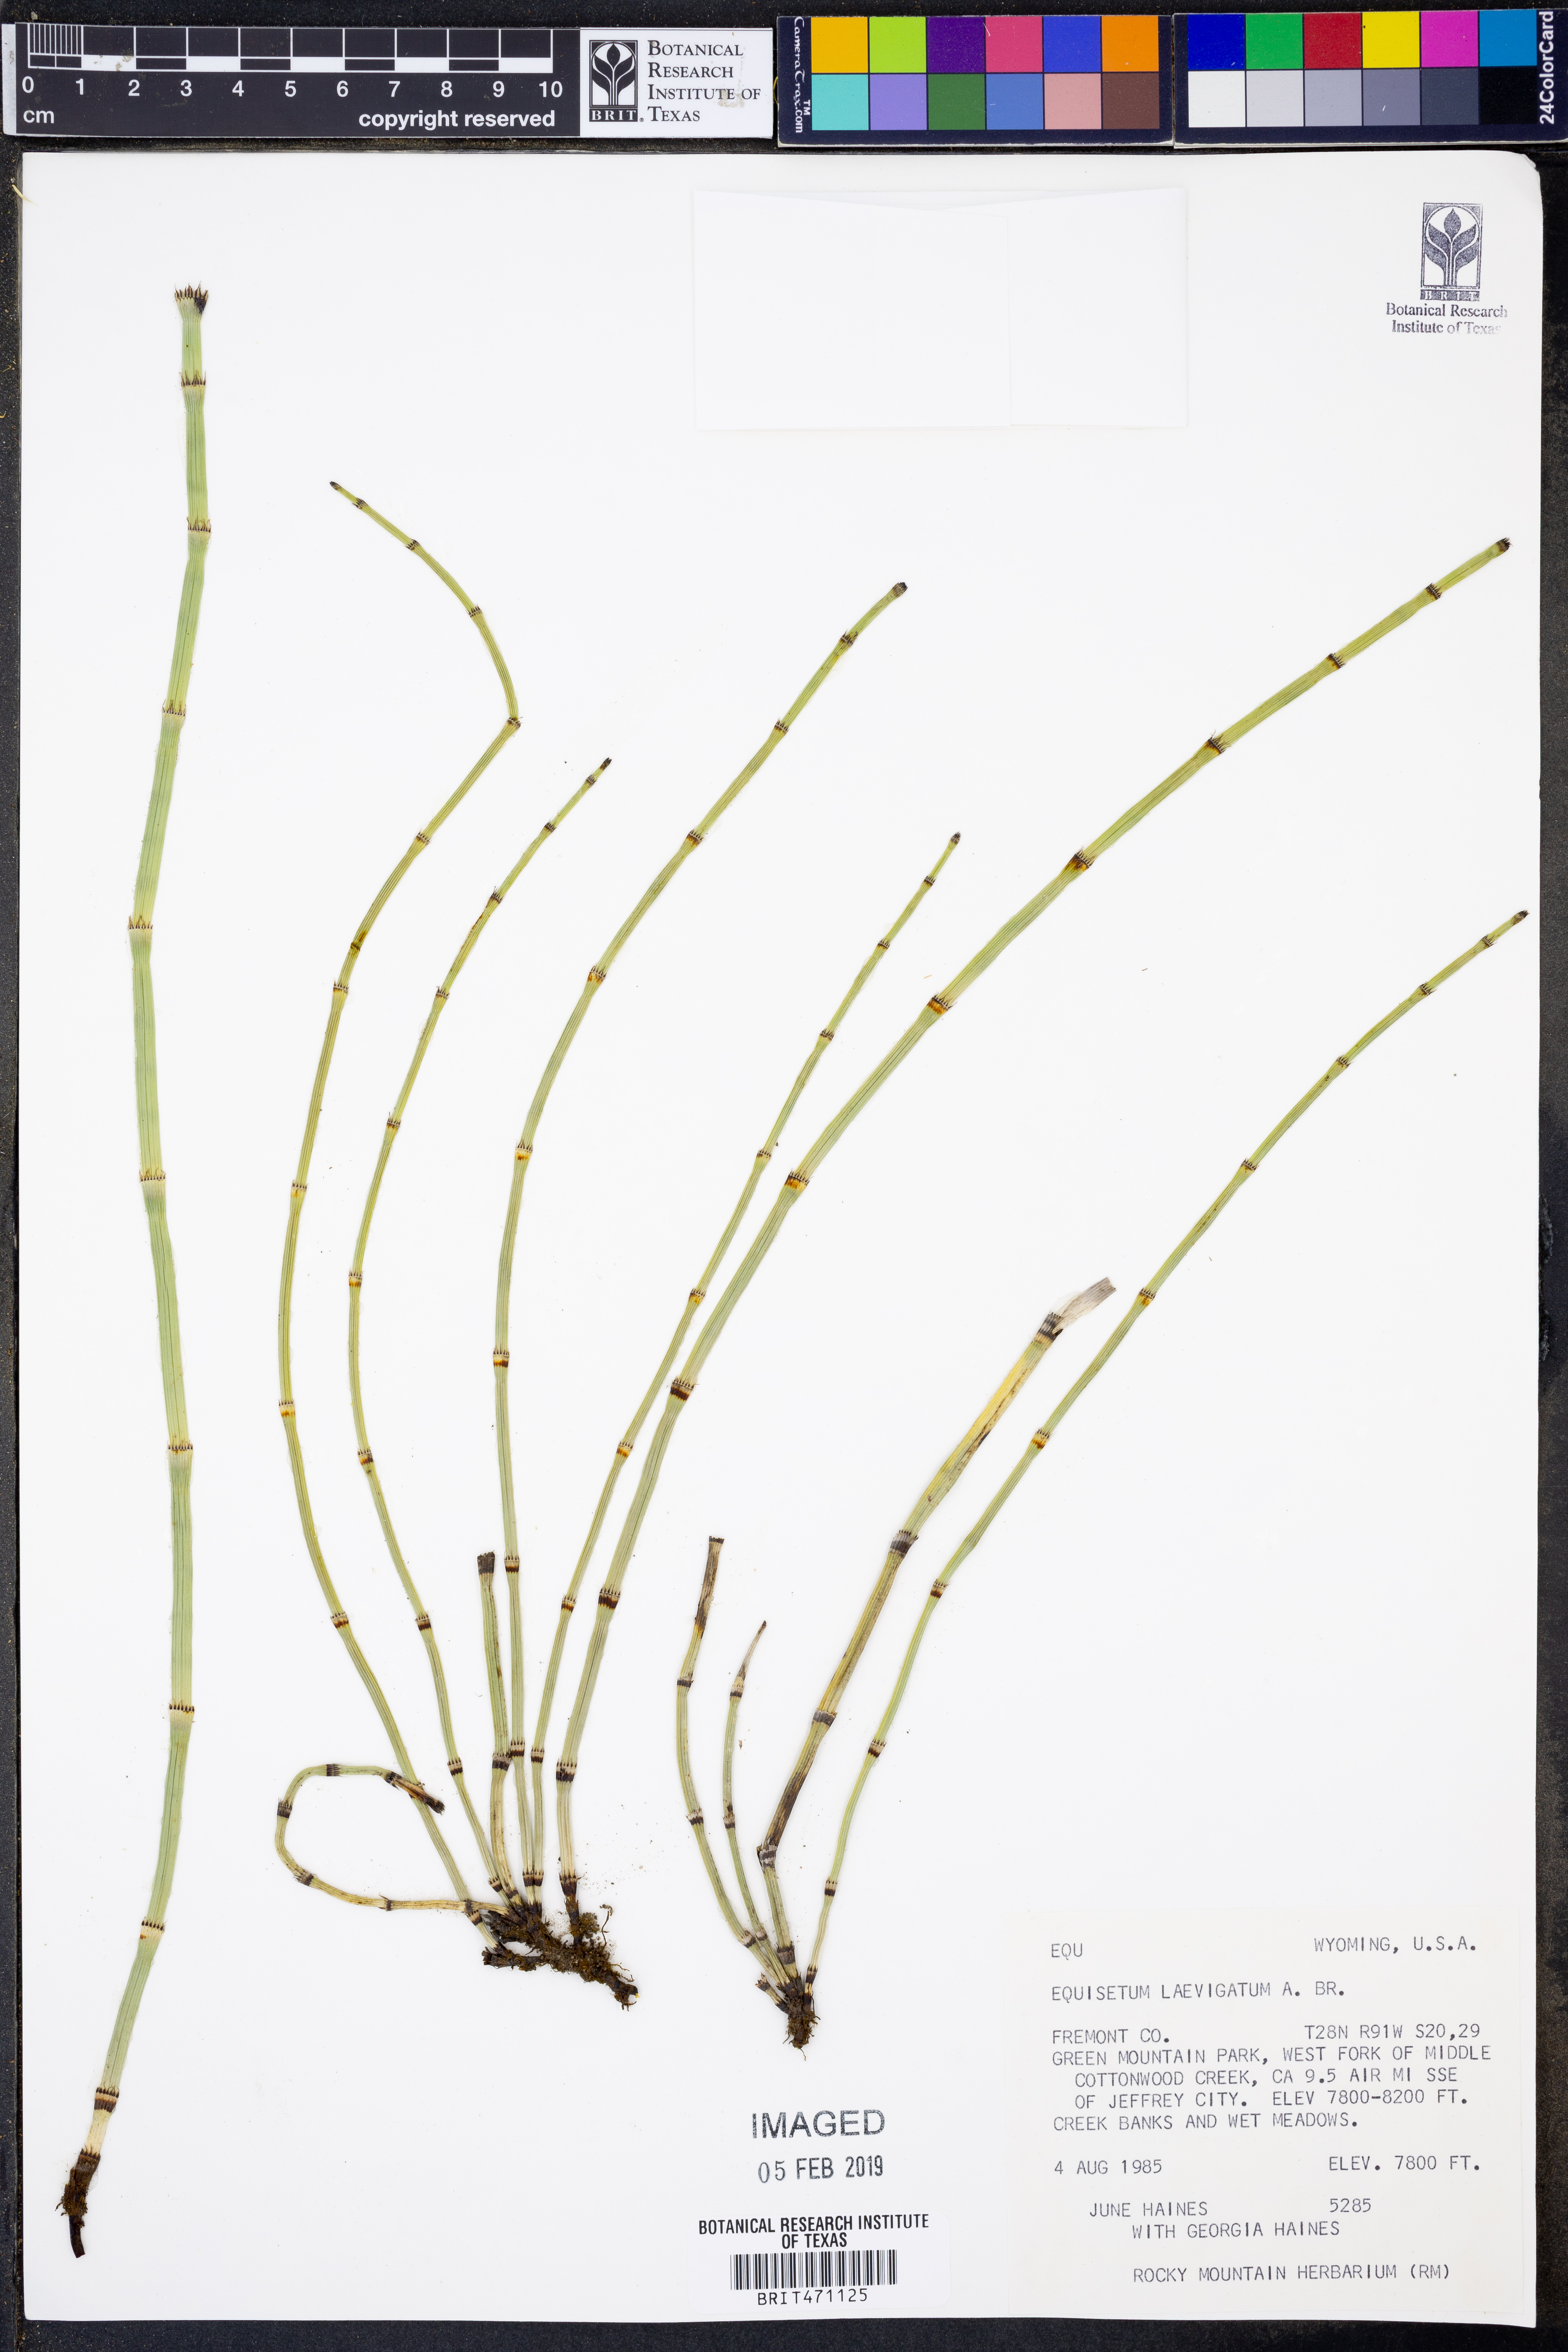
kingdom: Plantae
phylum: Tracheophyta
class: Polypodiopsida
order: Equisetales
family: Equisetaceae
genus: Equisetum
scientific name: Equisetum laevigatum
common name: Smooth scouring-rush
